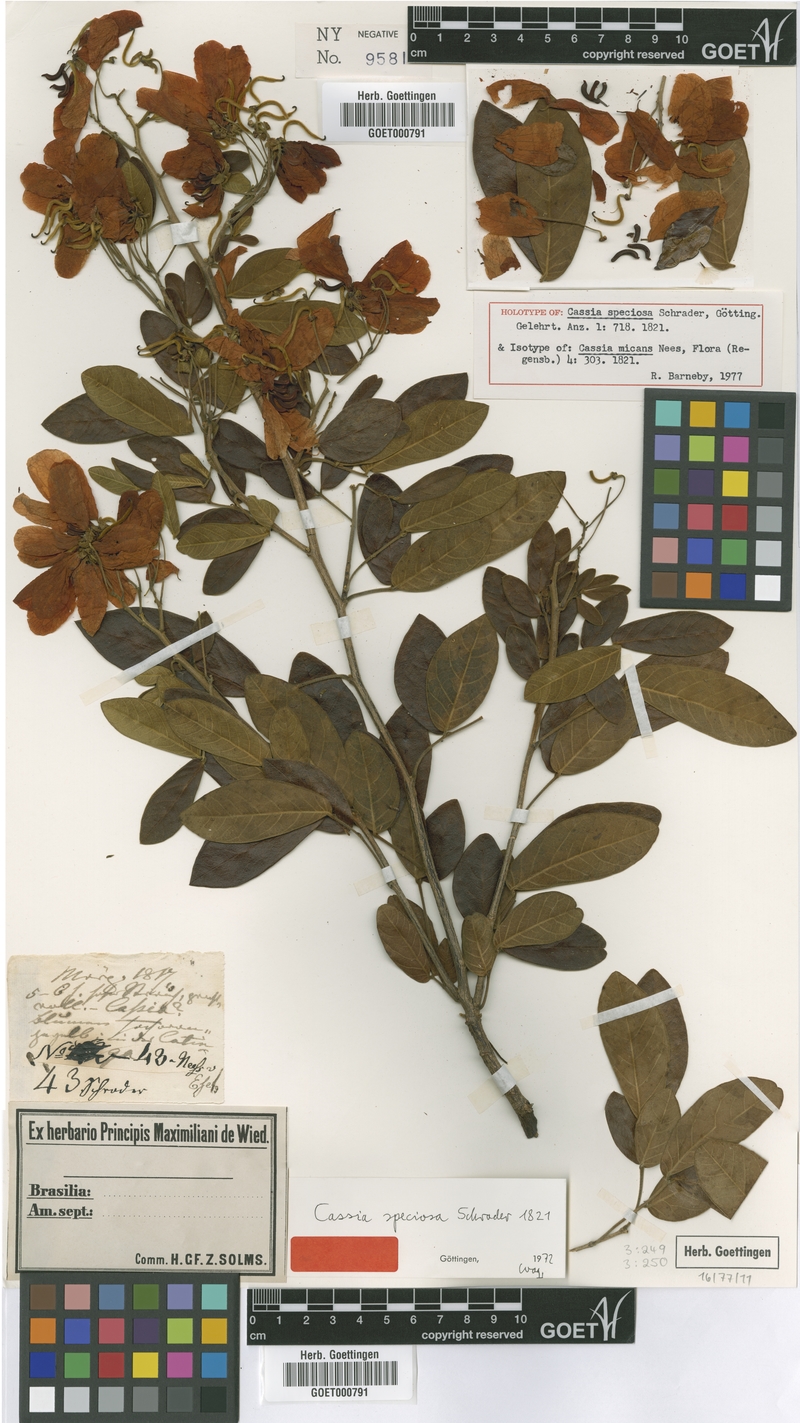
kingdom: Plantae
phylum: Tracheophyta
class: Magnoliopsida
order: Fabales
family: Fabaceae
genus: Senna
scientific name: Senna macranthera
